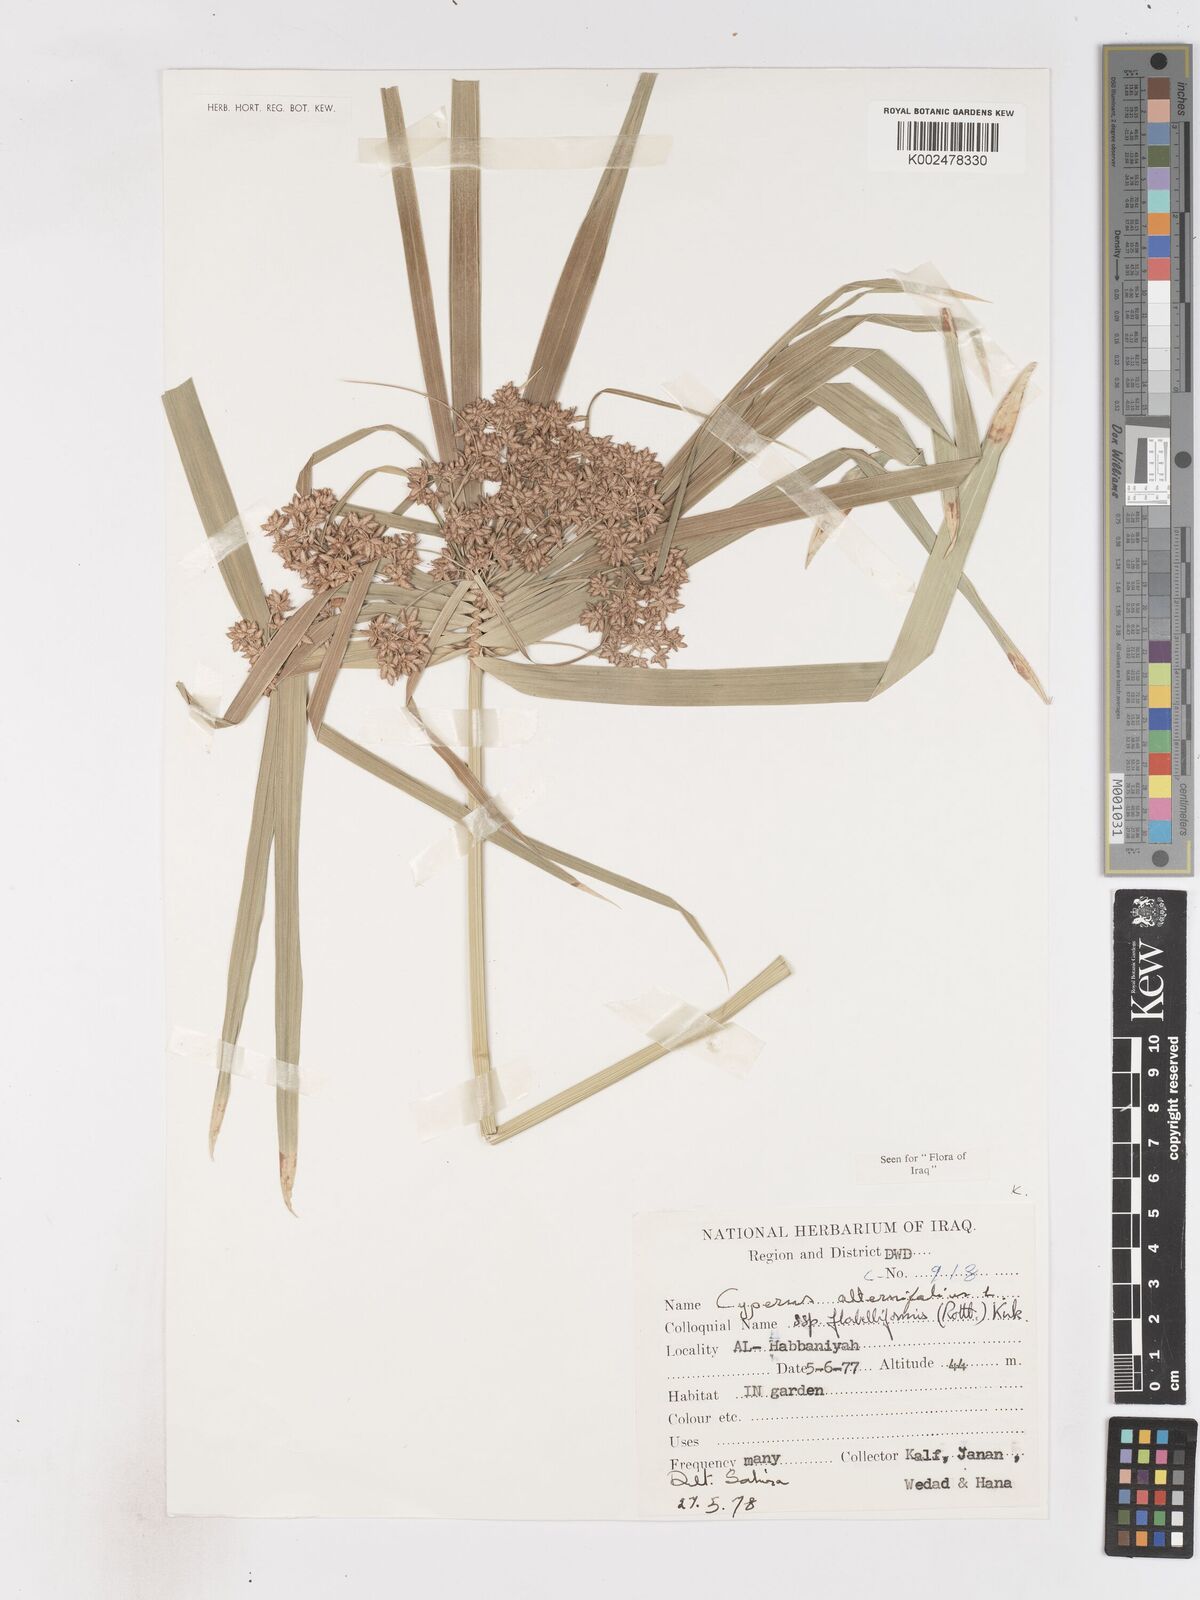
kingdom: Plantae
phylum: Tracheophyta
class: Liliopsida
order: Poales
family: Cyperaceae
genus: Cyperus
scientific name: Cyperus alternifolius
